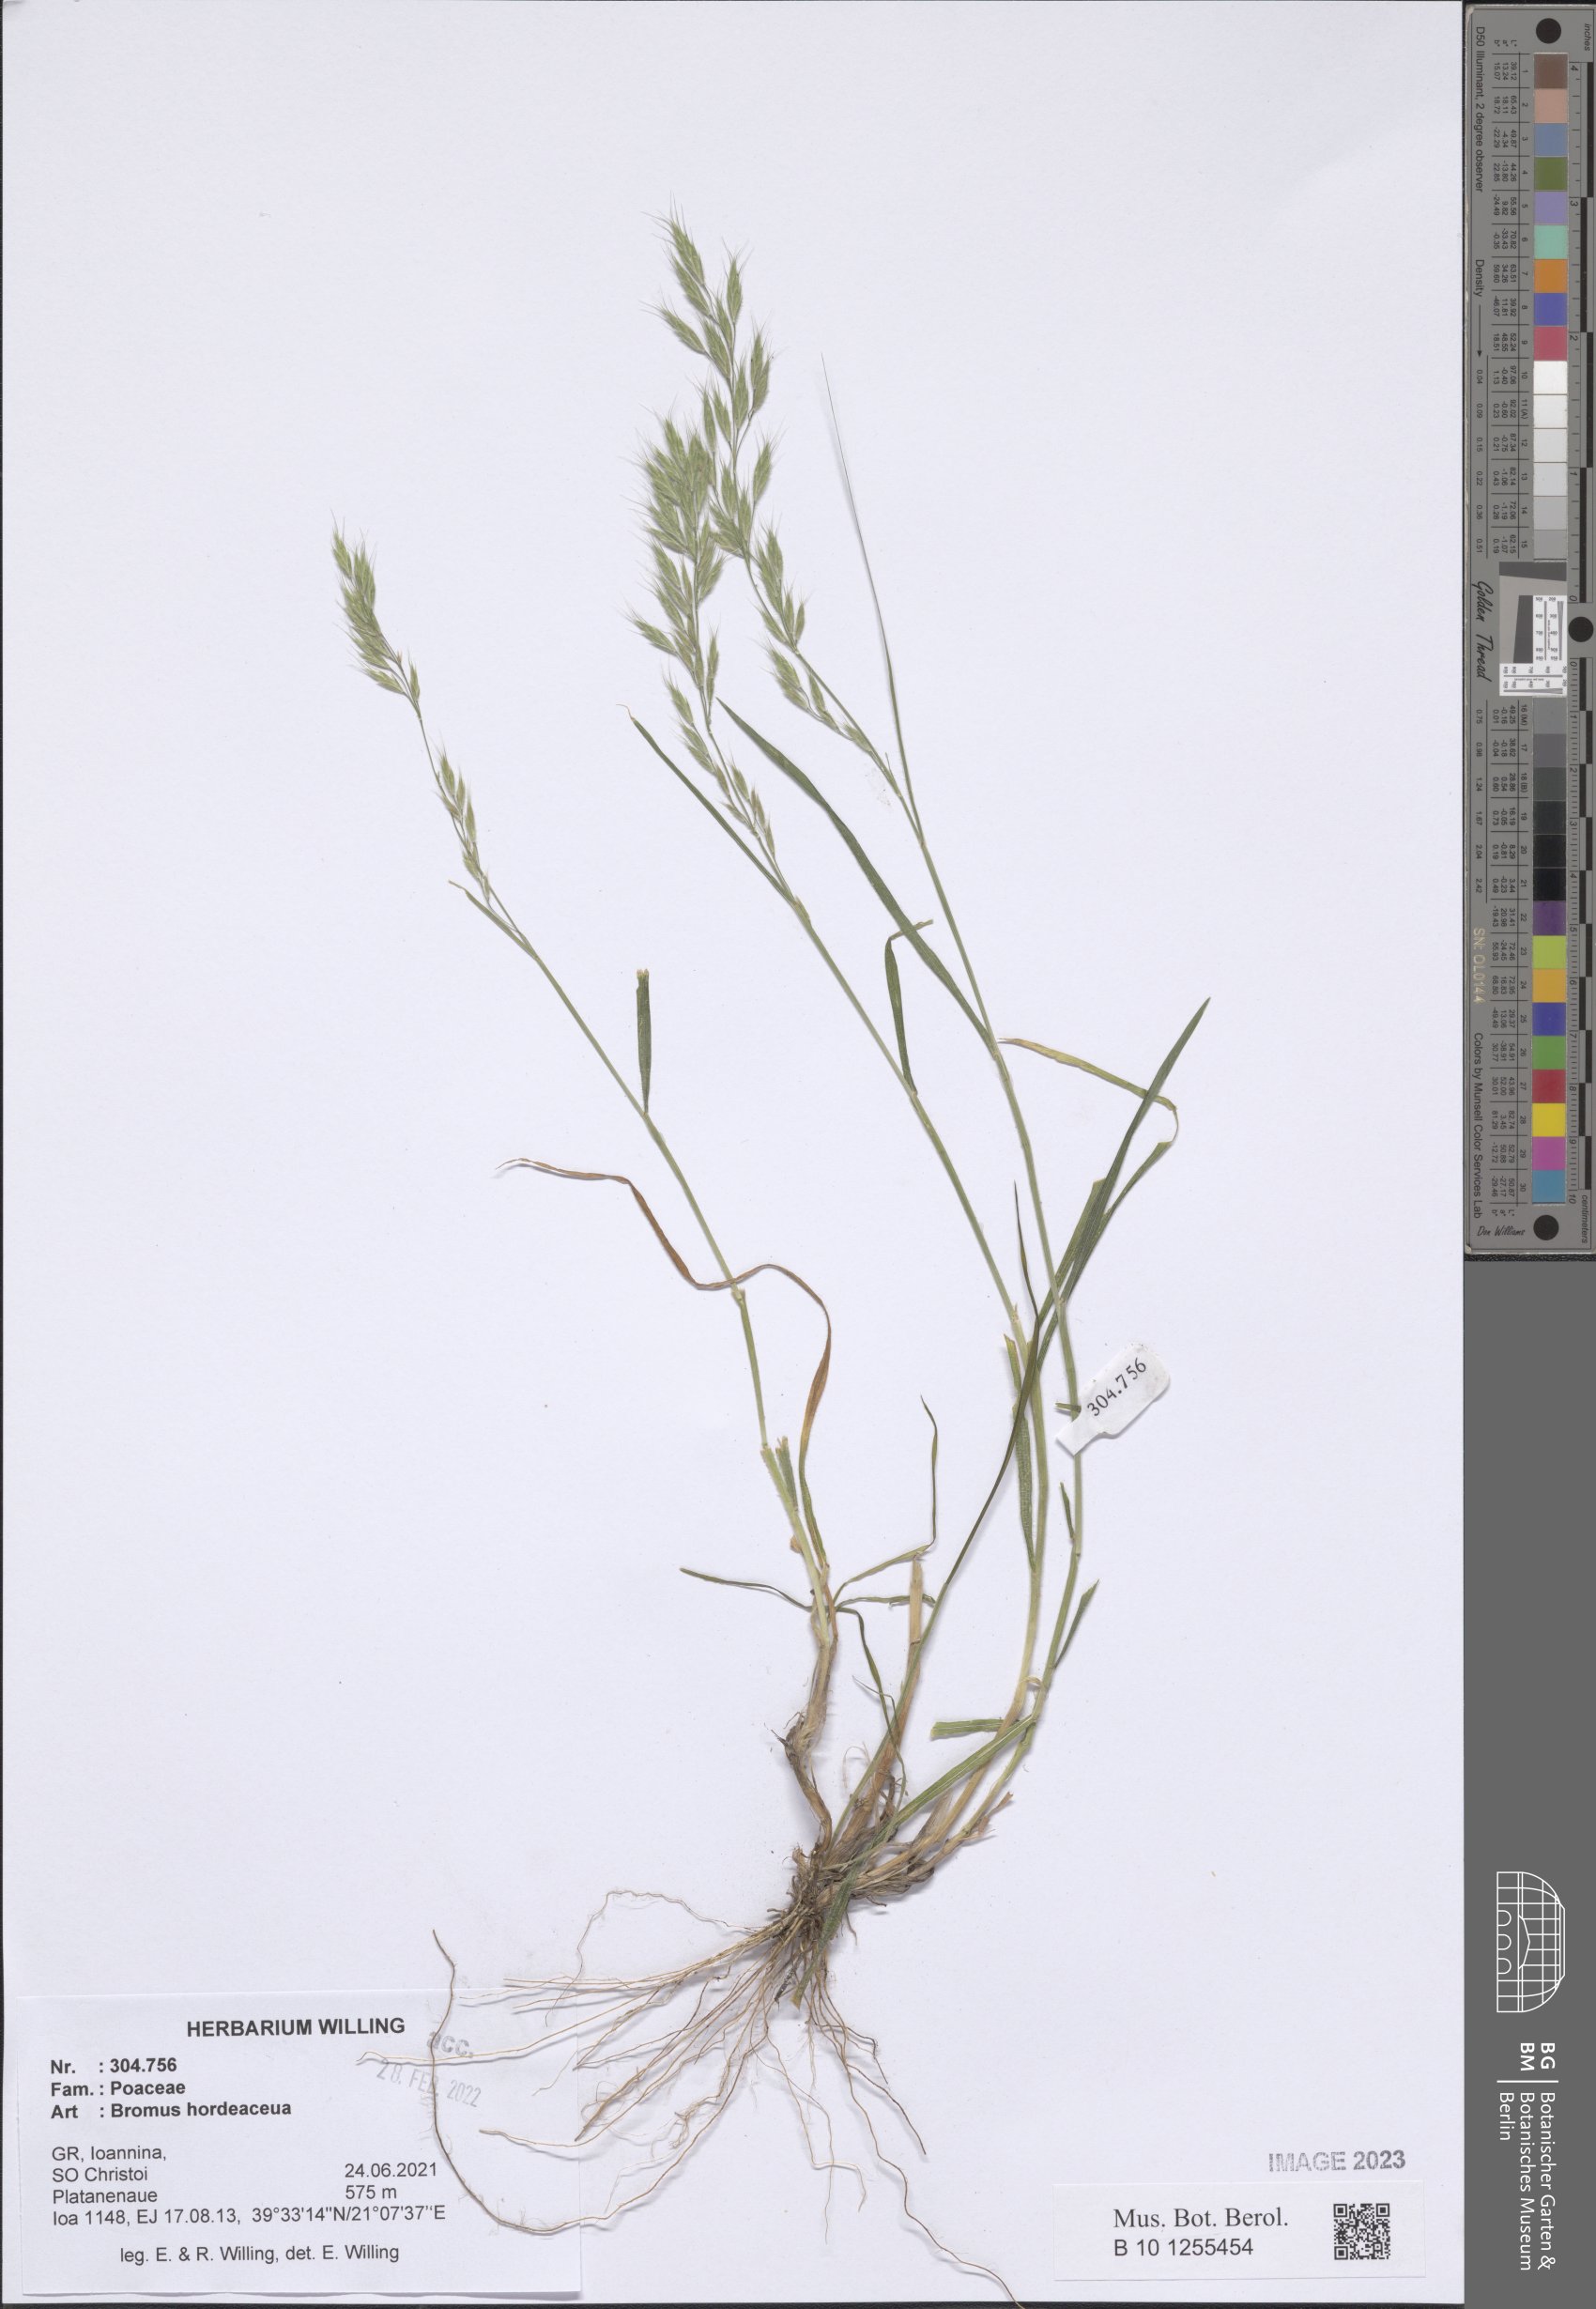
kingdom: Plantae
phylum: Tracheophyta
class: Liliopsida
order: Poales
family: Poaceae
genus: Bromus
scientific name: Bromus hordeaceus
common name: Soft brome
